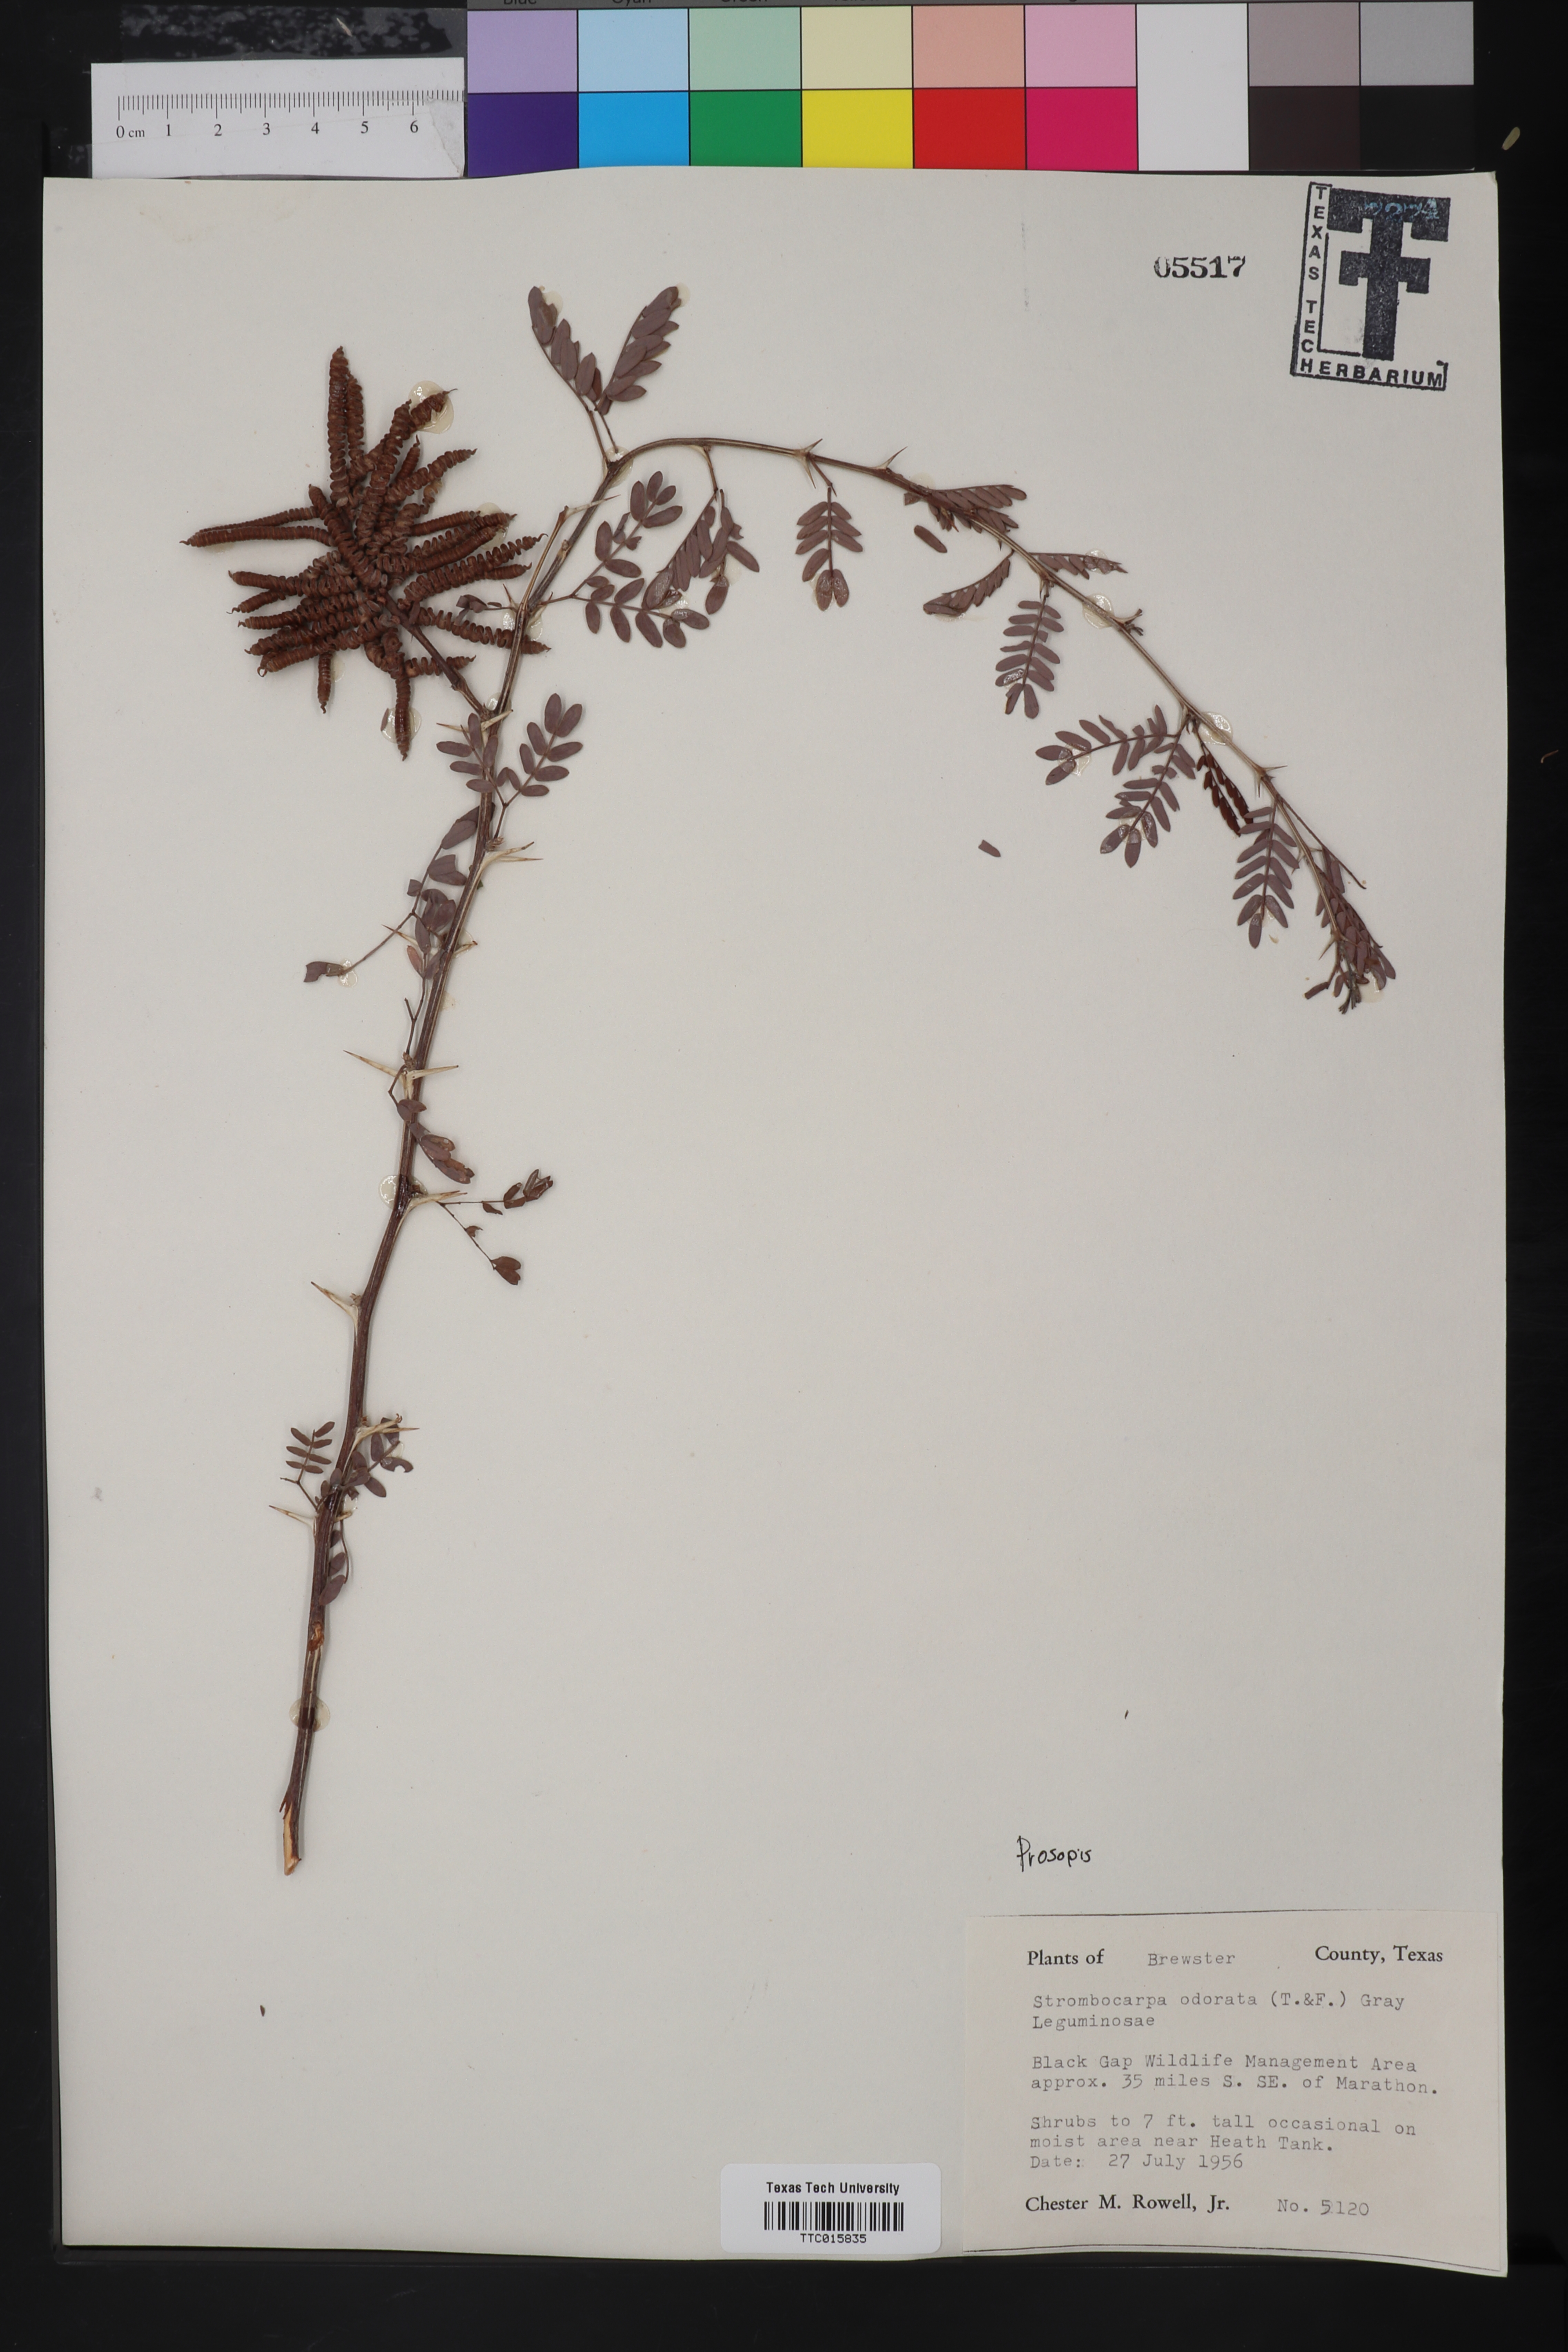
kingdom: Plantae
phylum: Tracheophyta
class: Magnoliopsida
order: Fabales
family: Fabaceae
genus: Prosopis
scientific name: Prosopis
